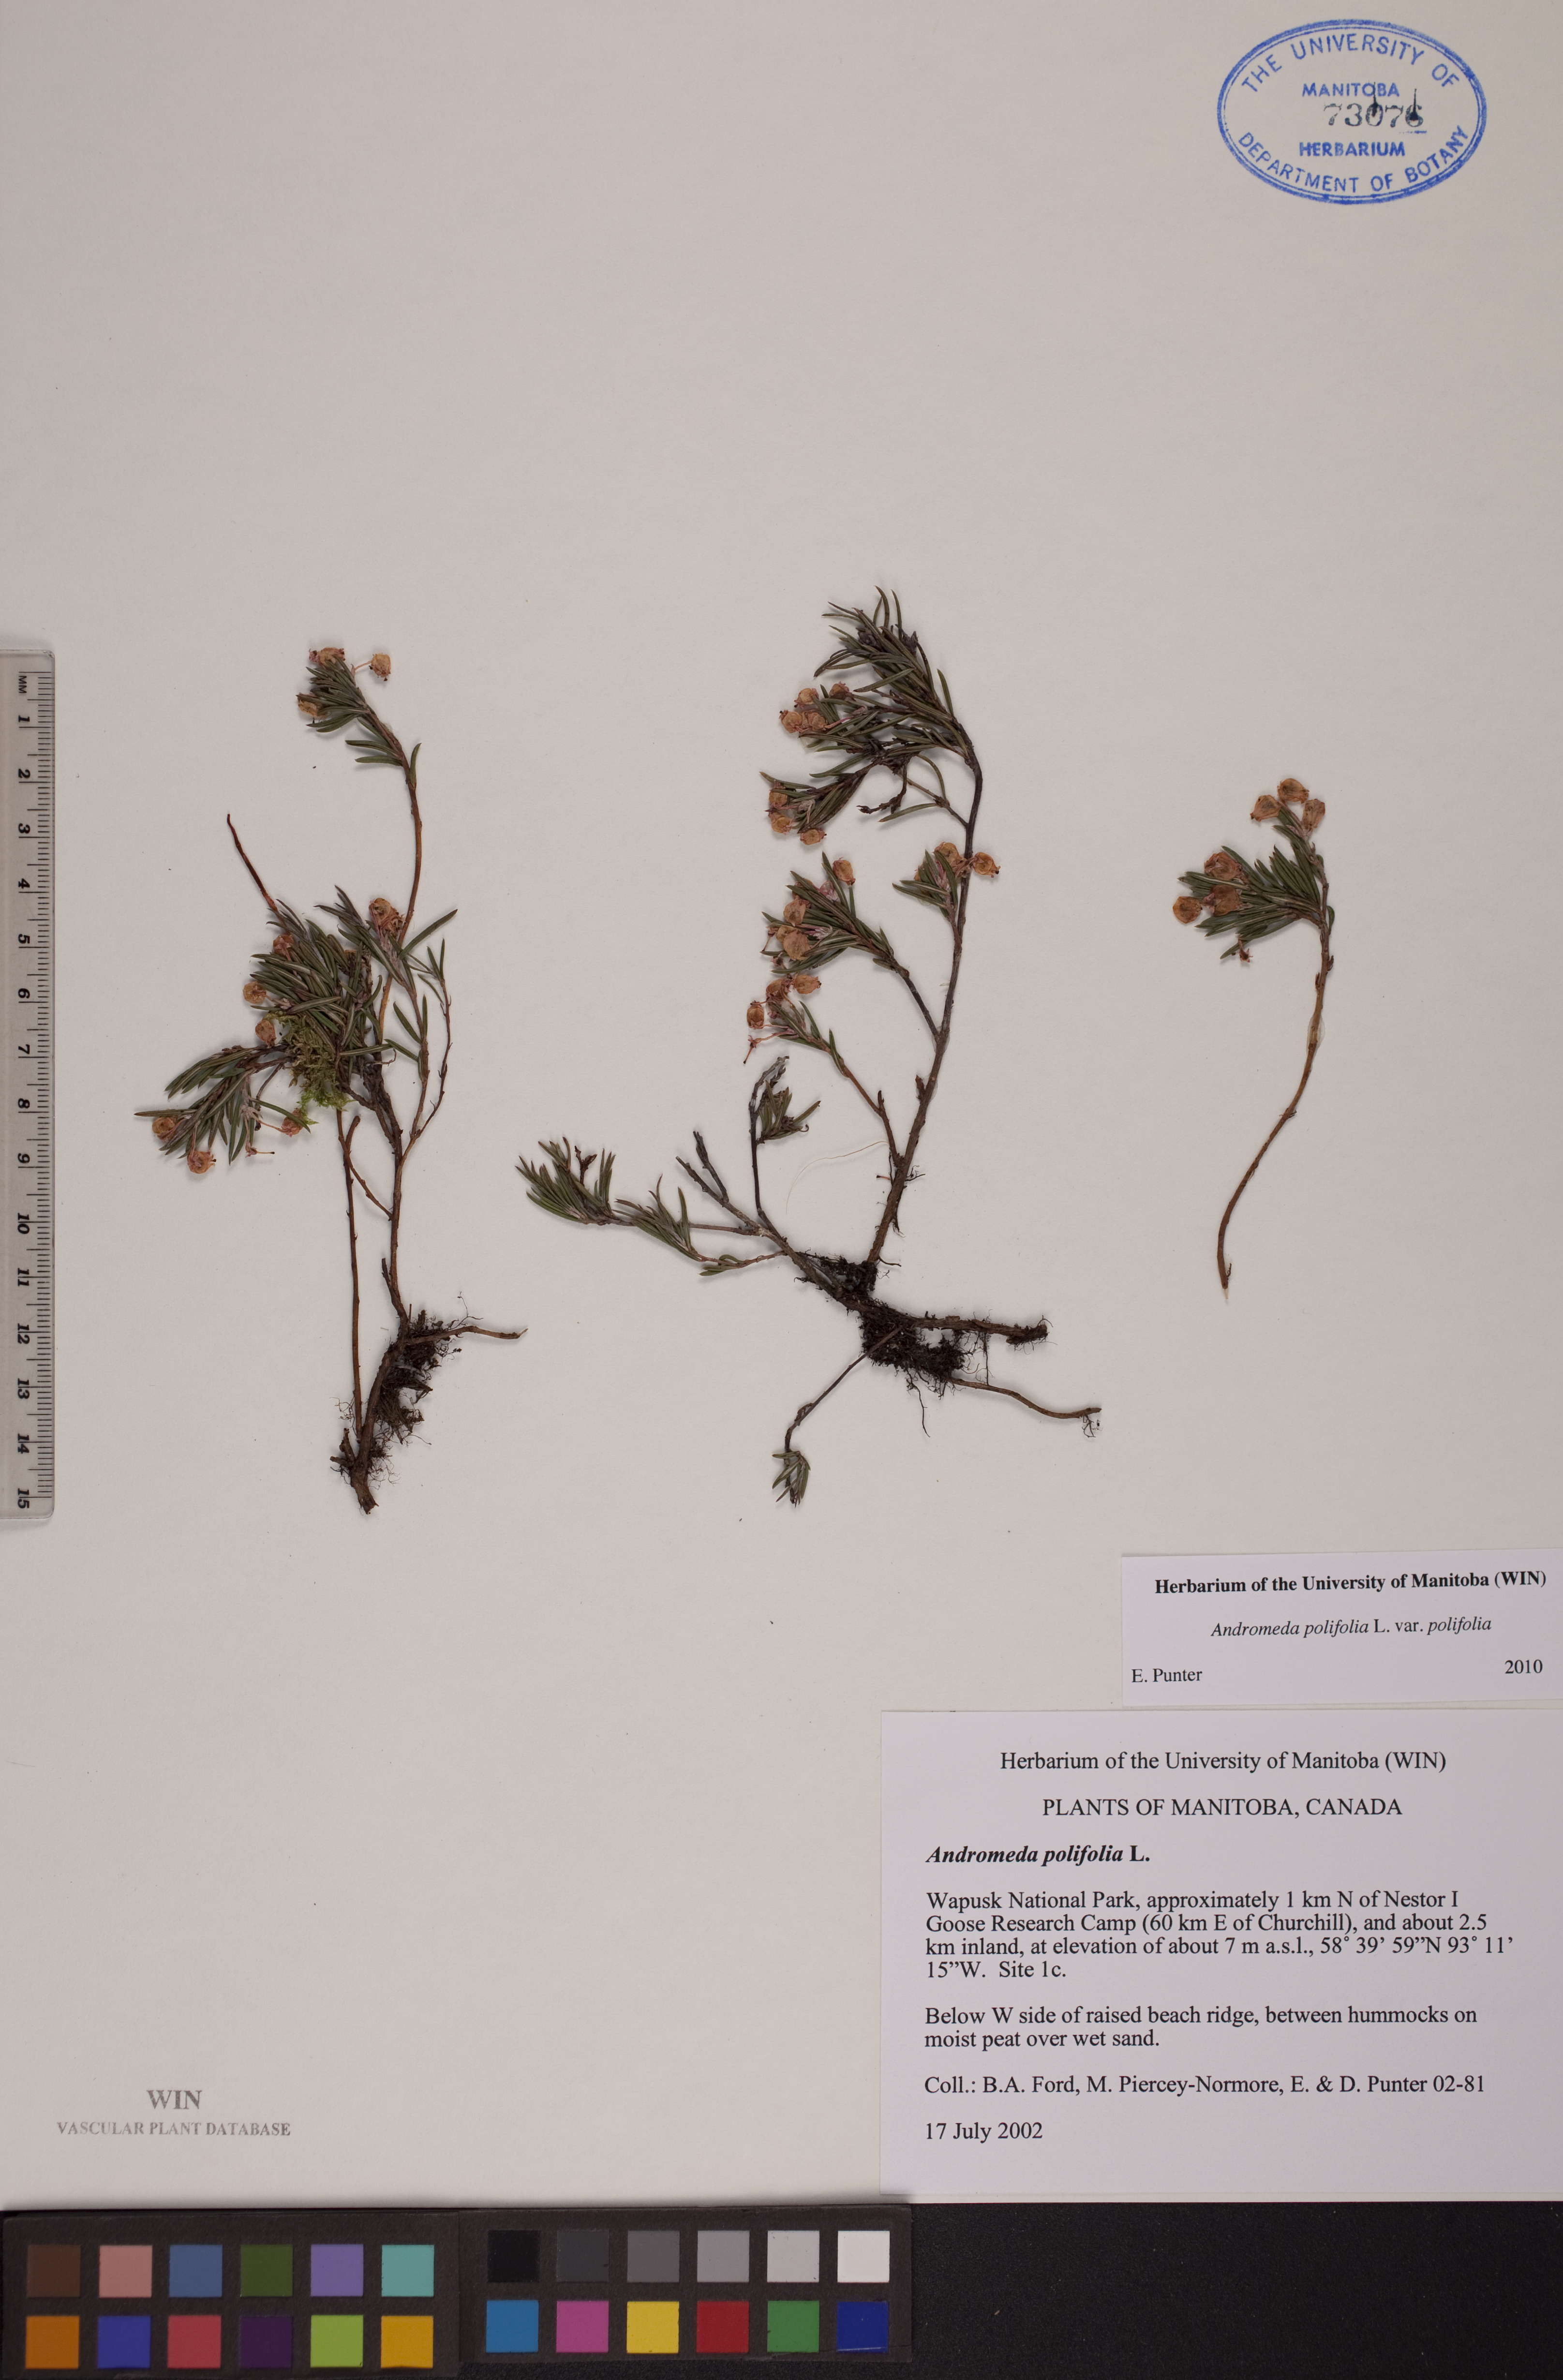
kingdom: Plantae
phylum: Tracheophyta
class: Magnoliopsida
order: Ericales
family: Ericaceae
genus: Andromeda
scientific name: Andromeda polifolia
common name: Bog-rosemary
